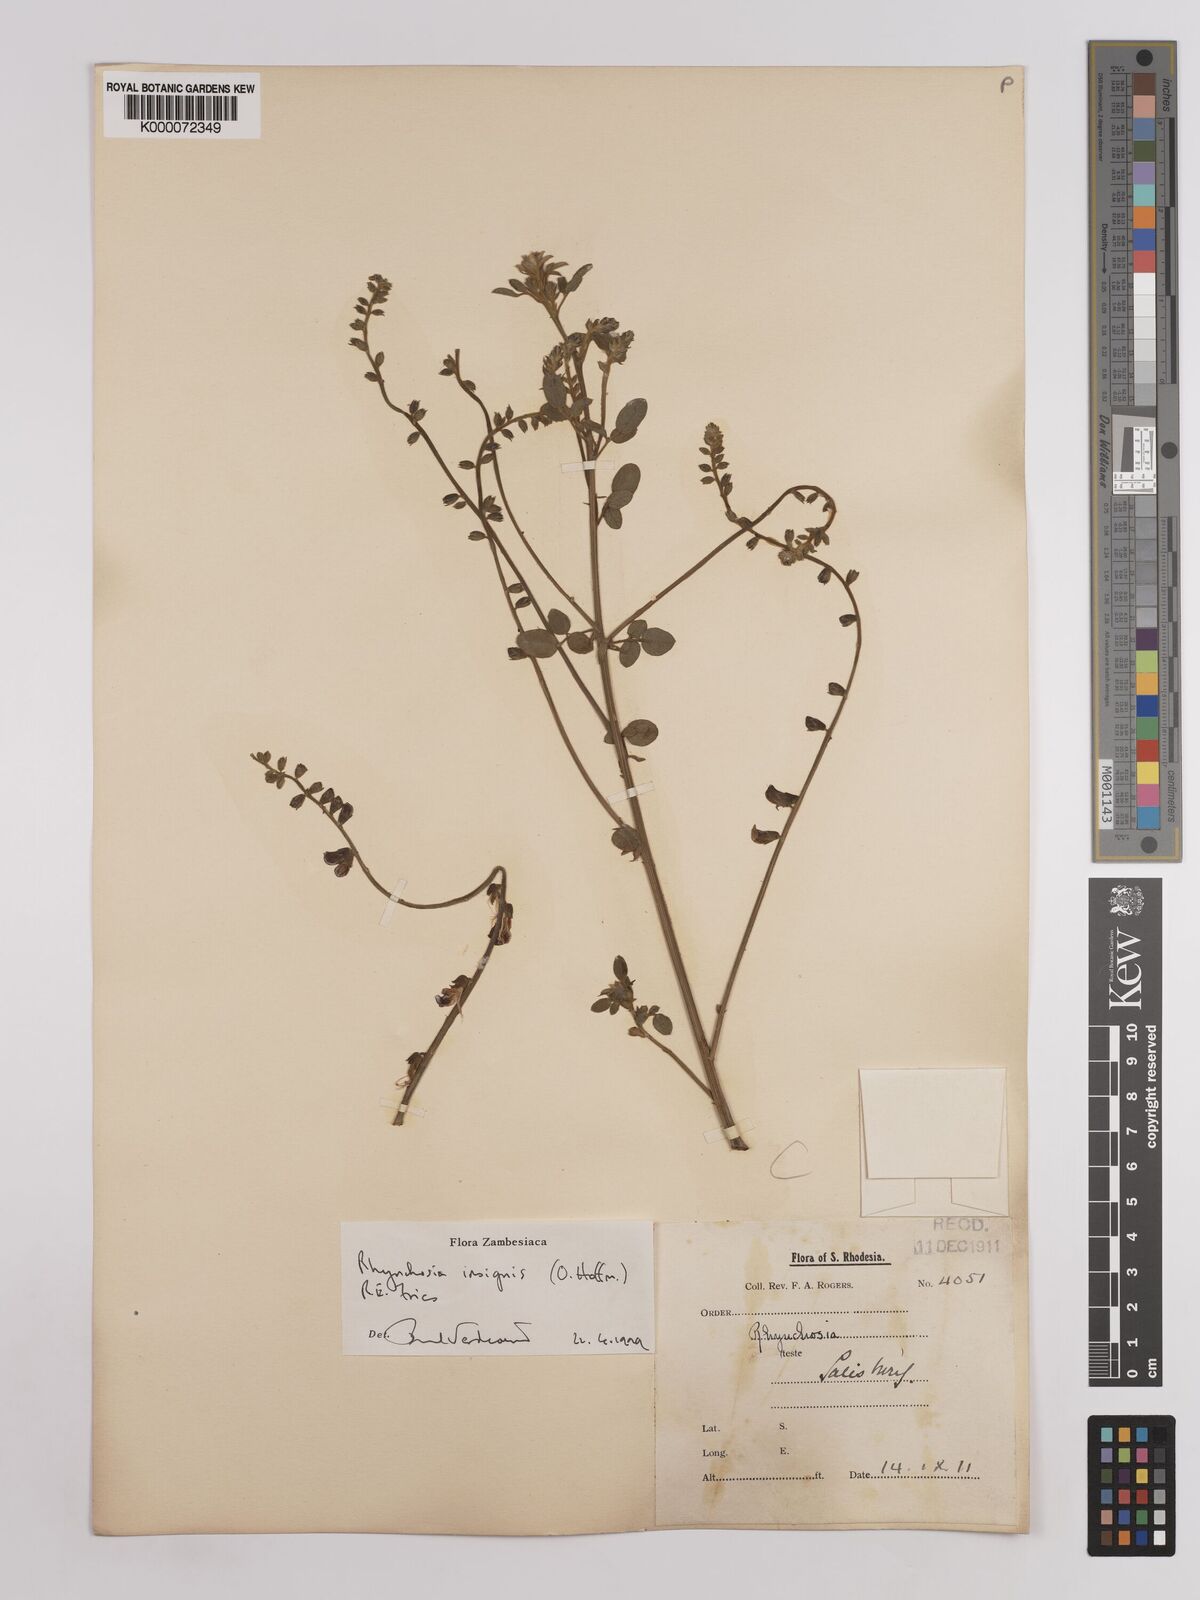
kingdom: Plantae
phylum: Tracheophyta
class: Magnoliopsida
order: Fabales
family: Fabaceae
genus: Rhynchosia
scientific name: Rhynchosia insignis
